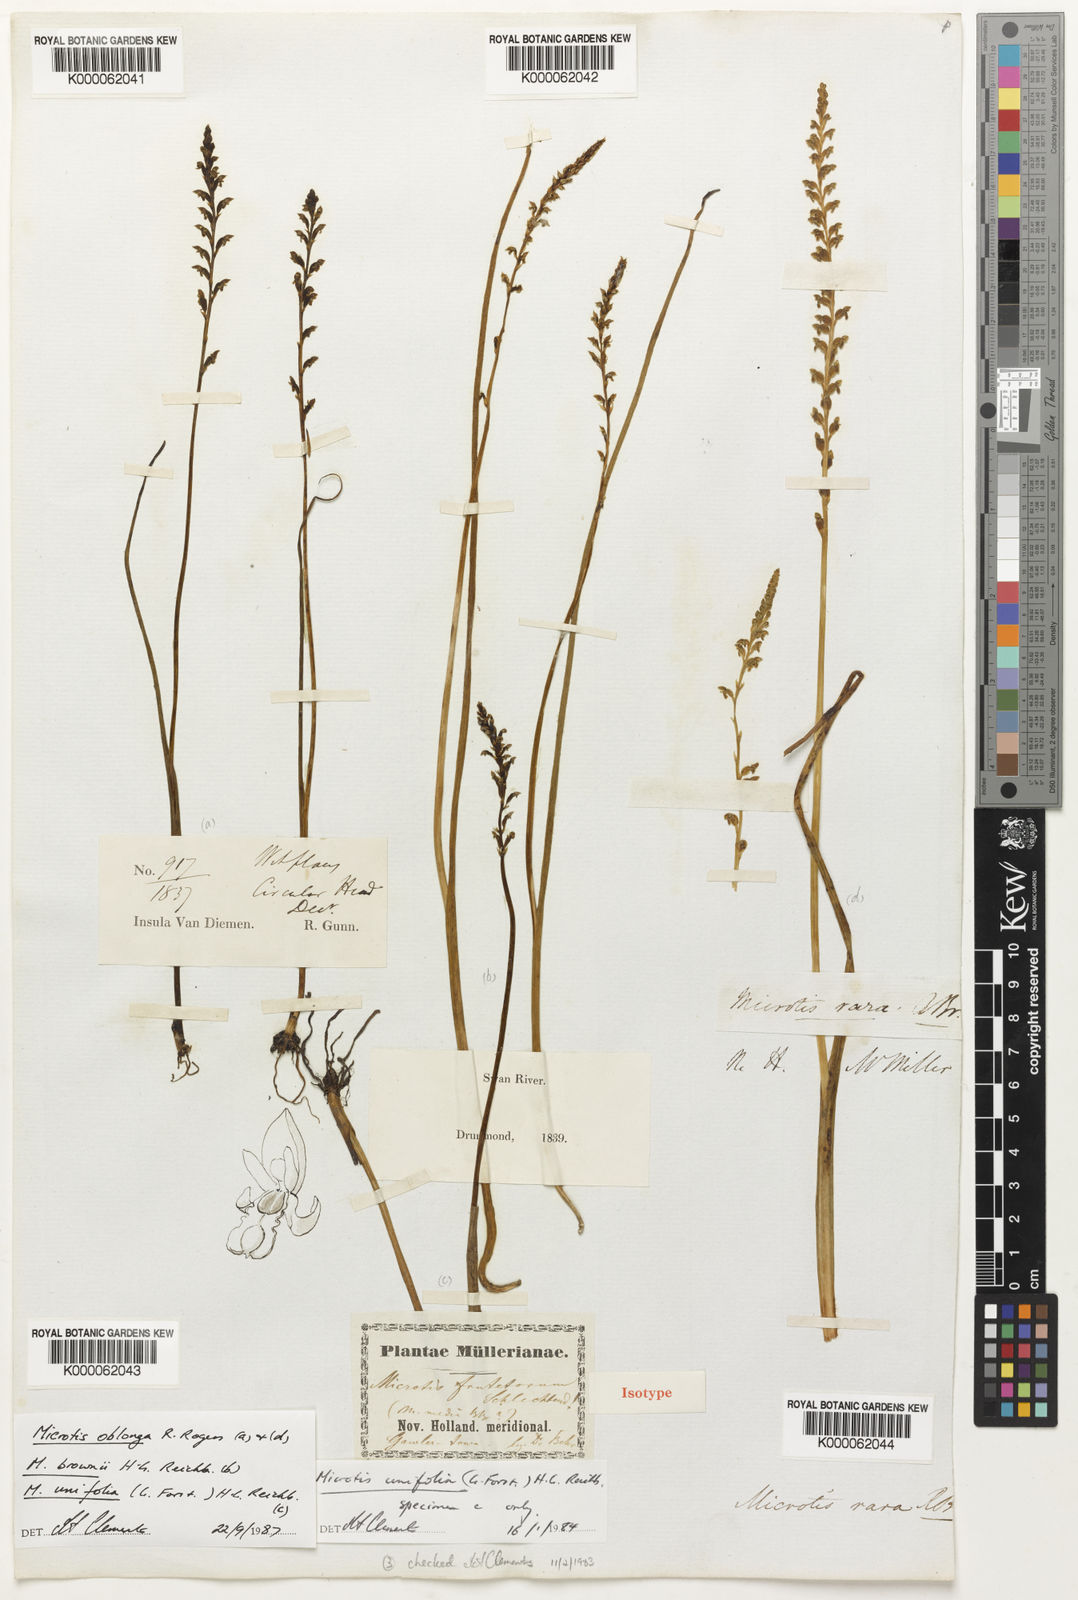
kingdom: Plantae
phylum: Tracheophyta
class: Liliopsida
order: Asparagales
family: Orchidaceae
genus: Microtis
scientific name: Microtis rara
